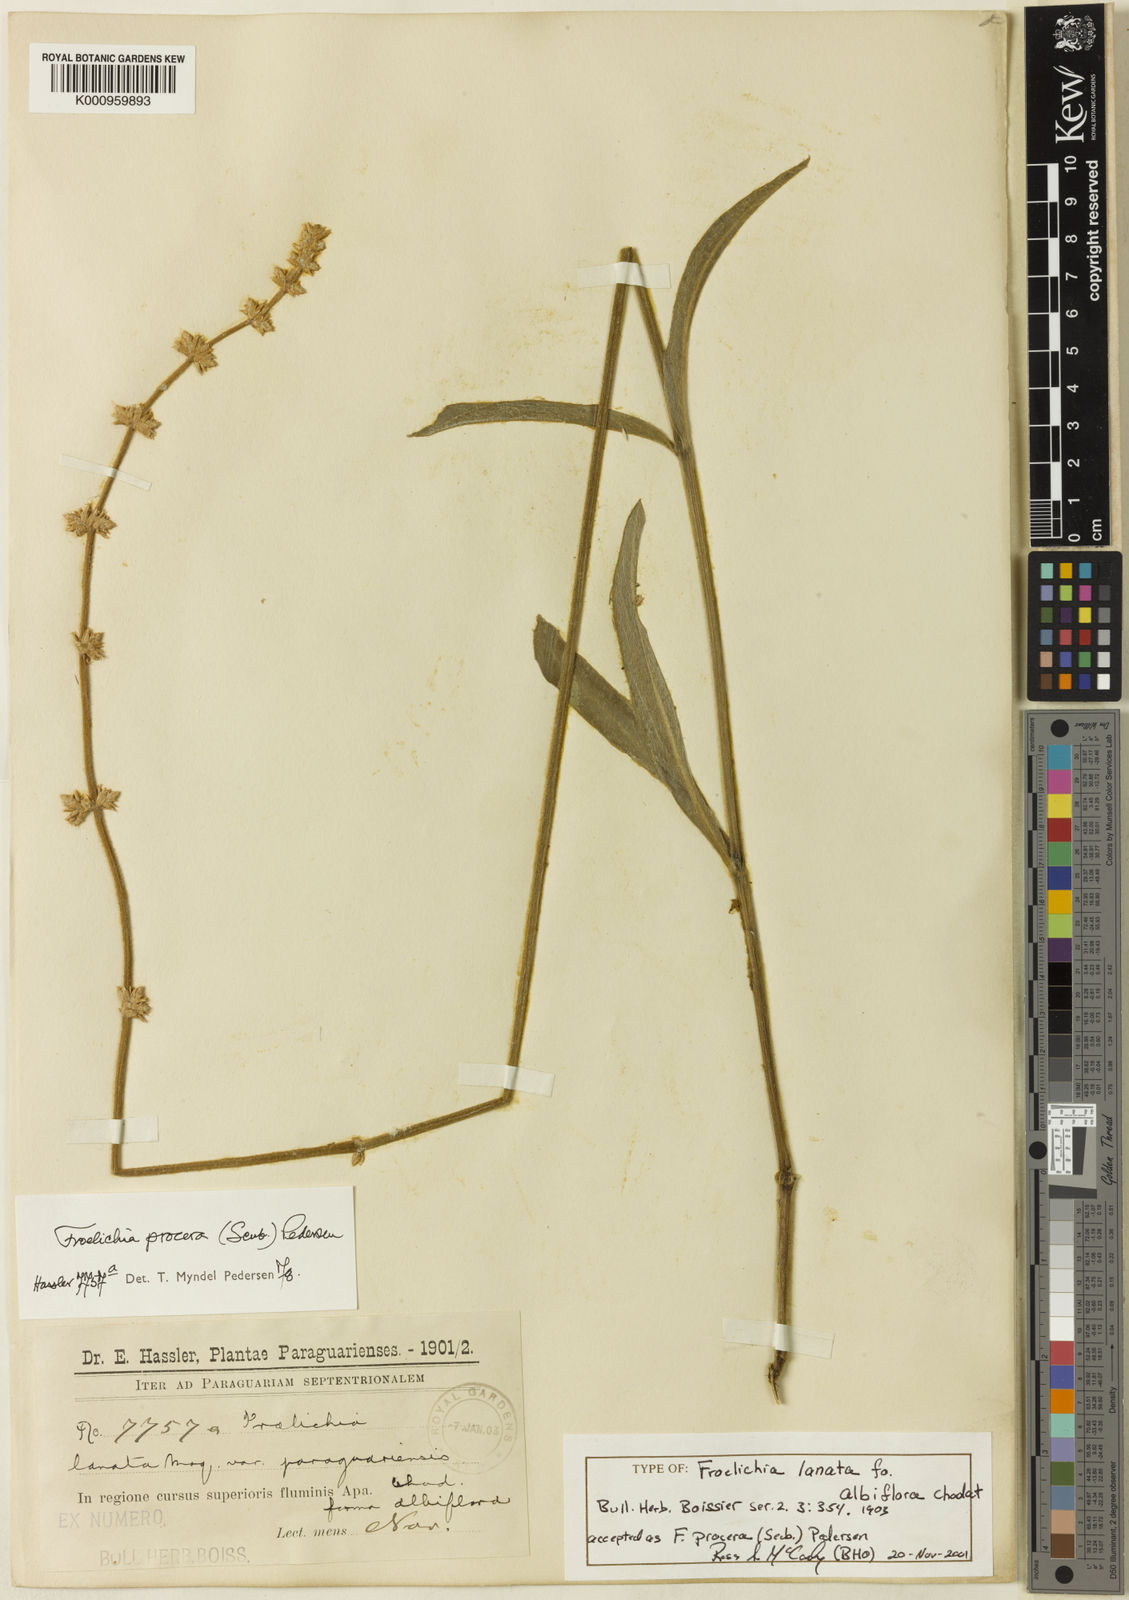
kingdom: Plantae
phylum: Tracheophyta
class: Magnoliopsida
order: Caryophyllales
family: Amaranthaceae
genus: Froelichia
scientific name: Froelichia
